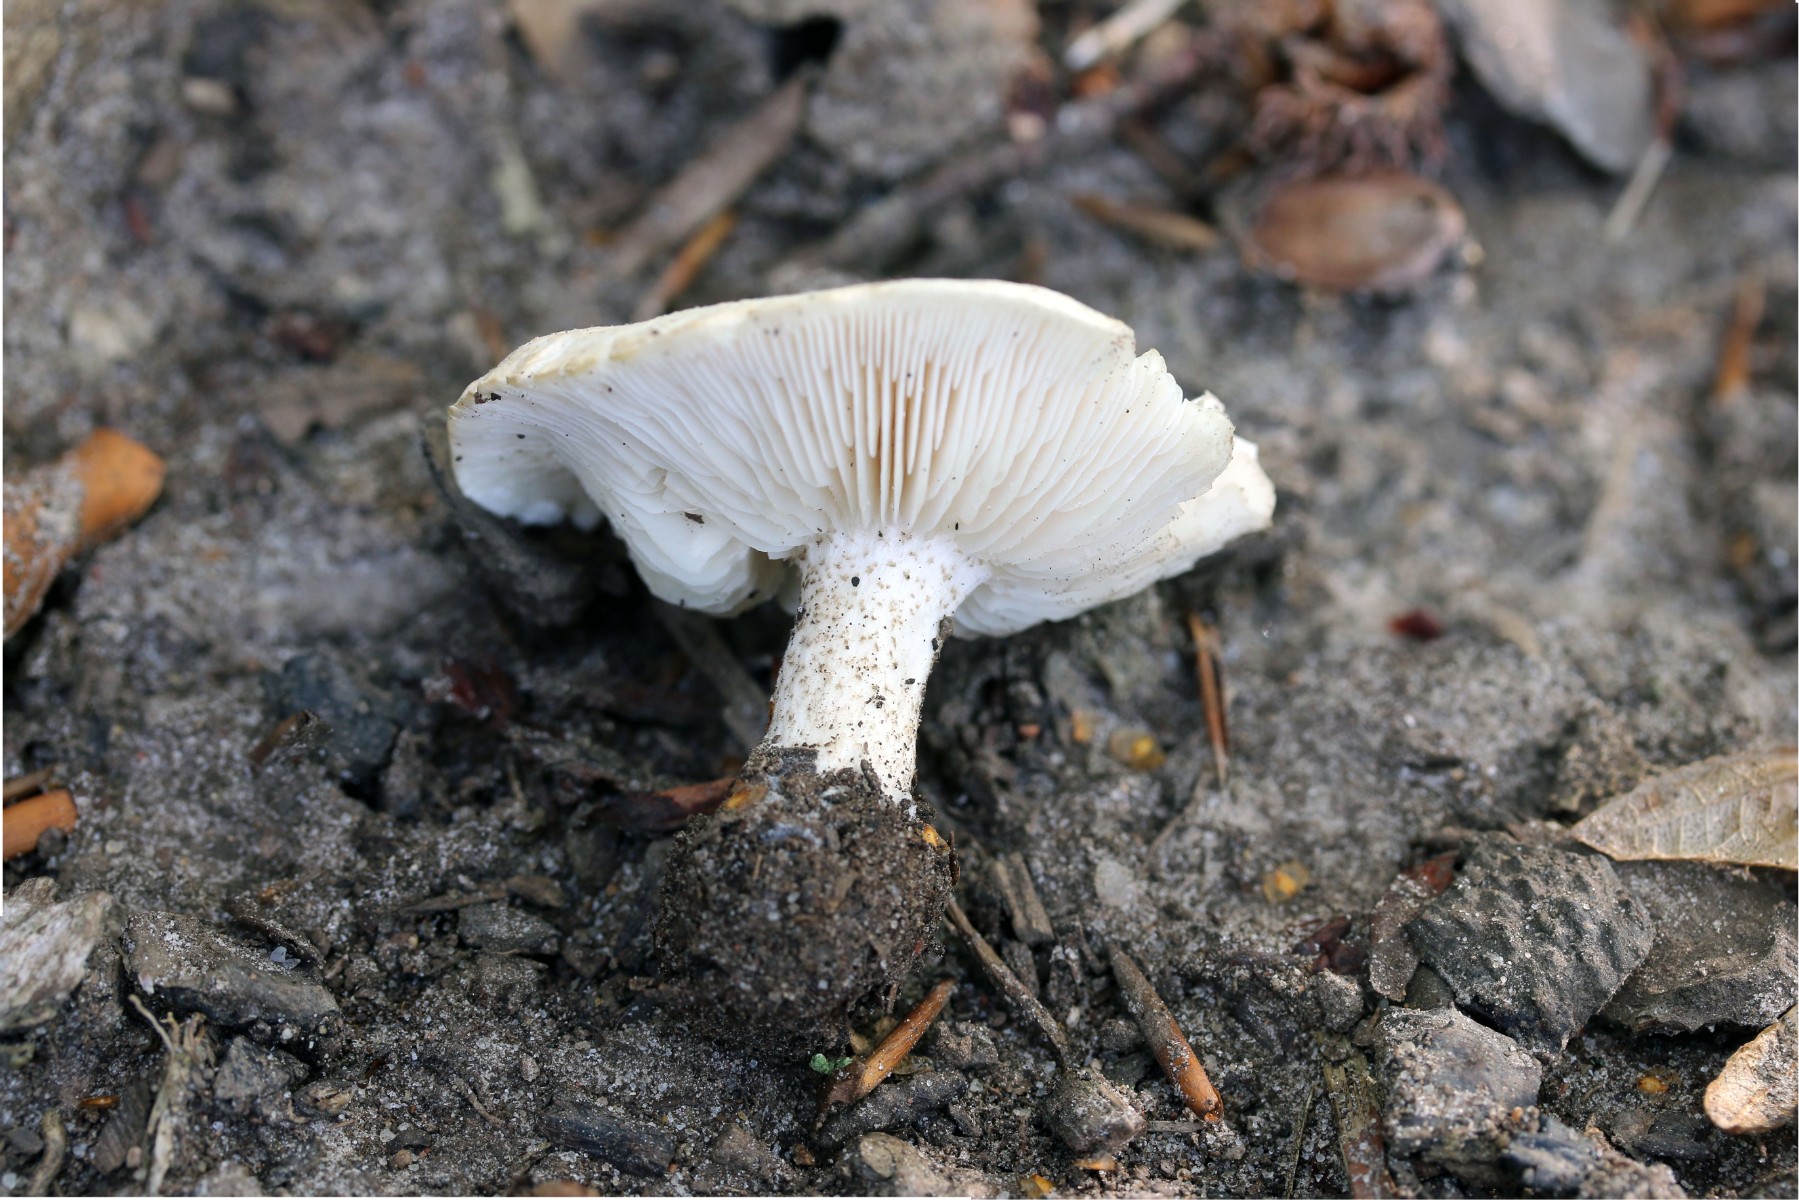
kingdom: Fungi
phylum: Basidiomycota
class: Agaricomycetes
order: Agaricales
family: Tricholomataceae
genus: Melanoleuca
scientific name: Melanoleuca verrucipes
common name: rufodet munkehat
